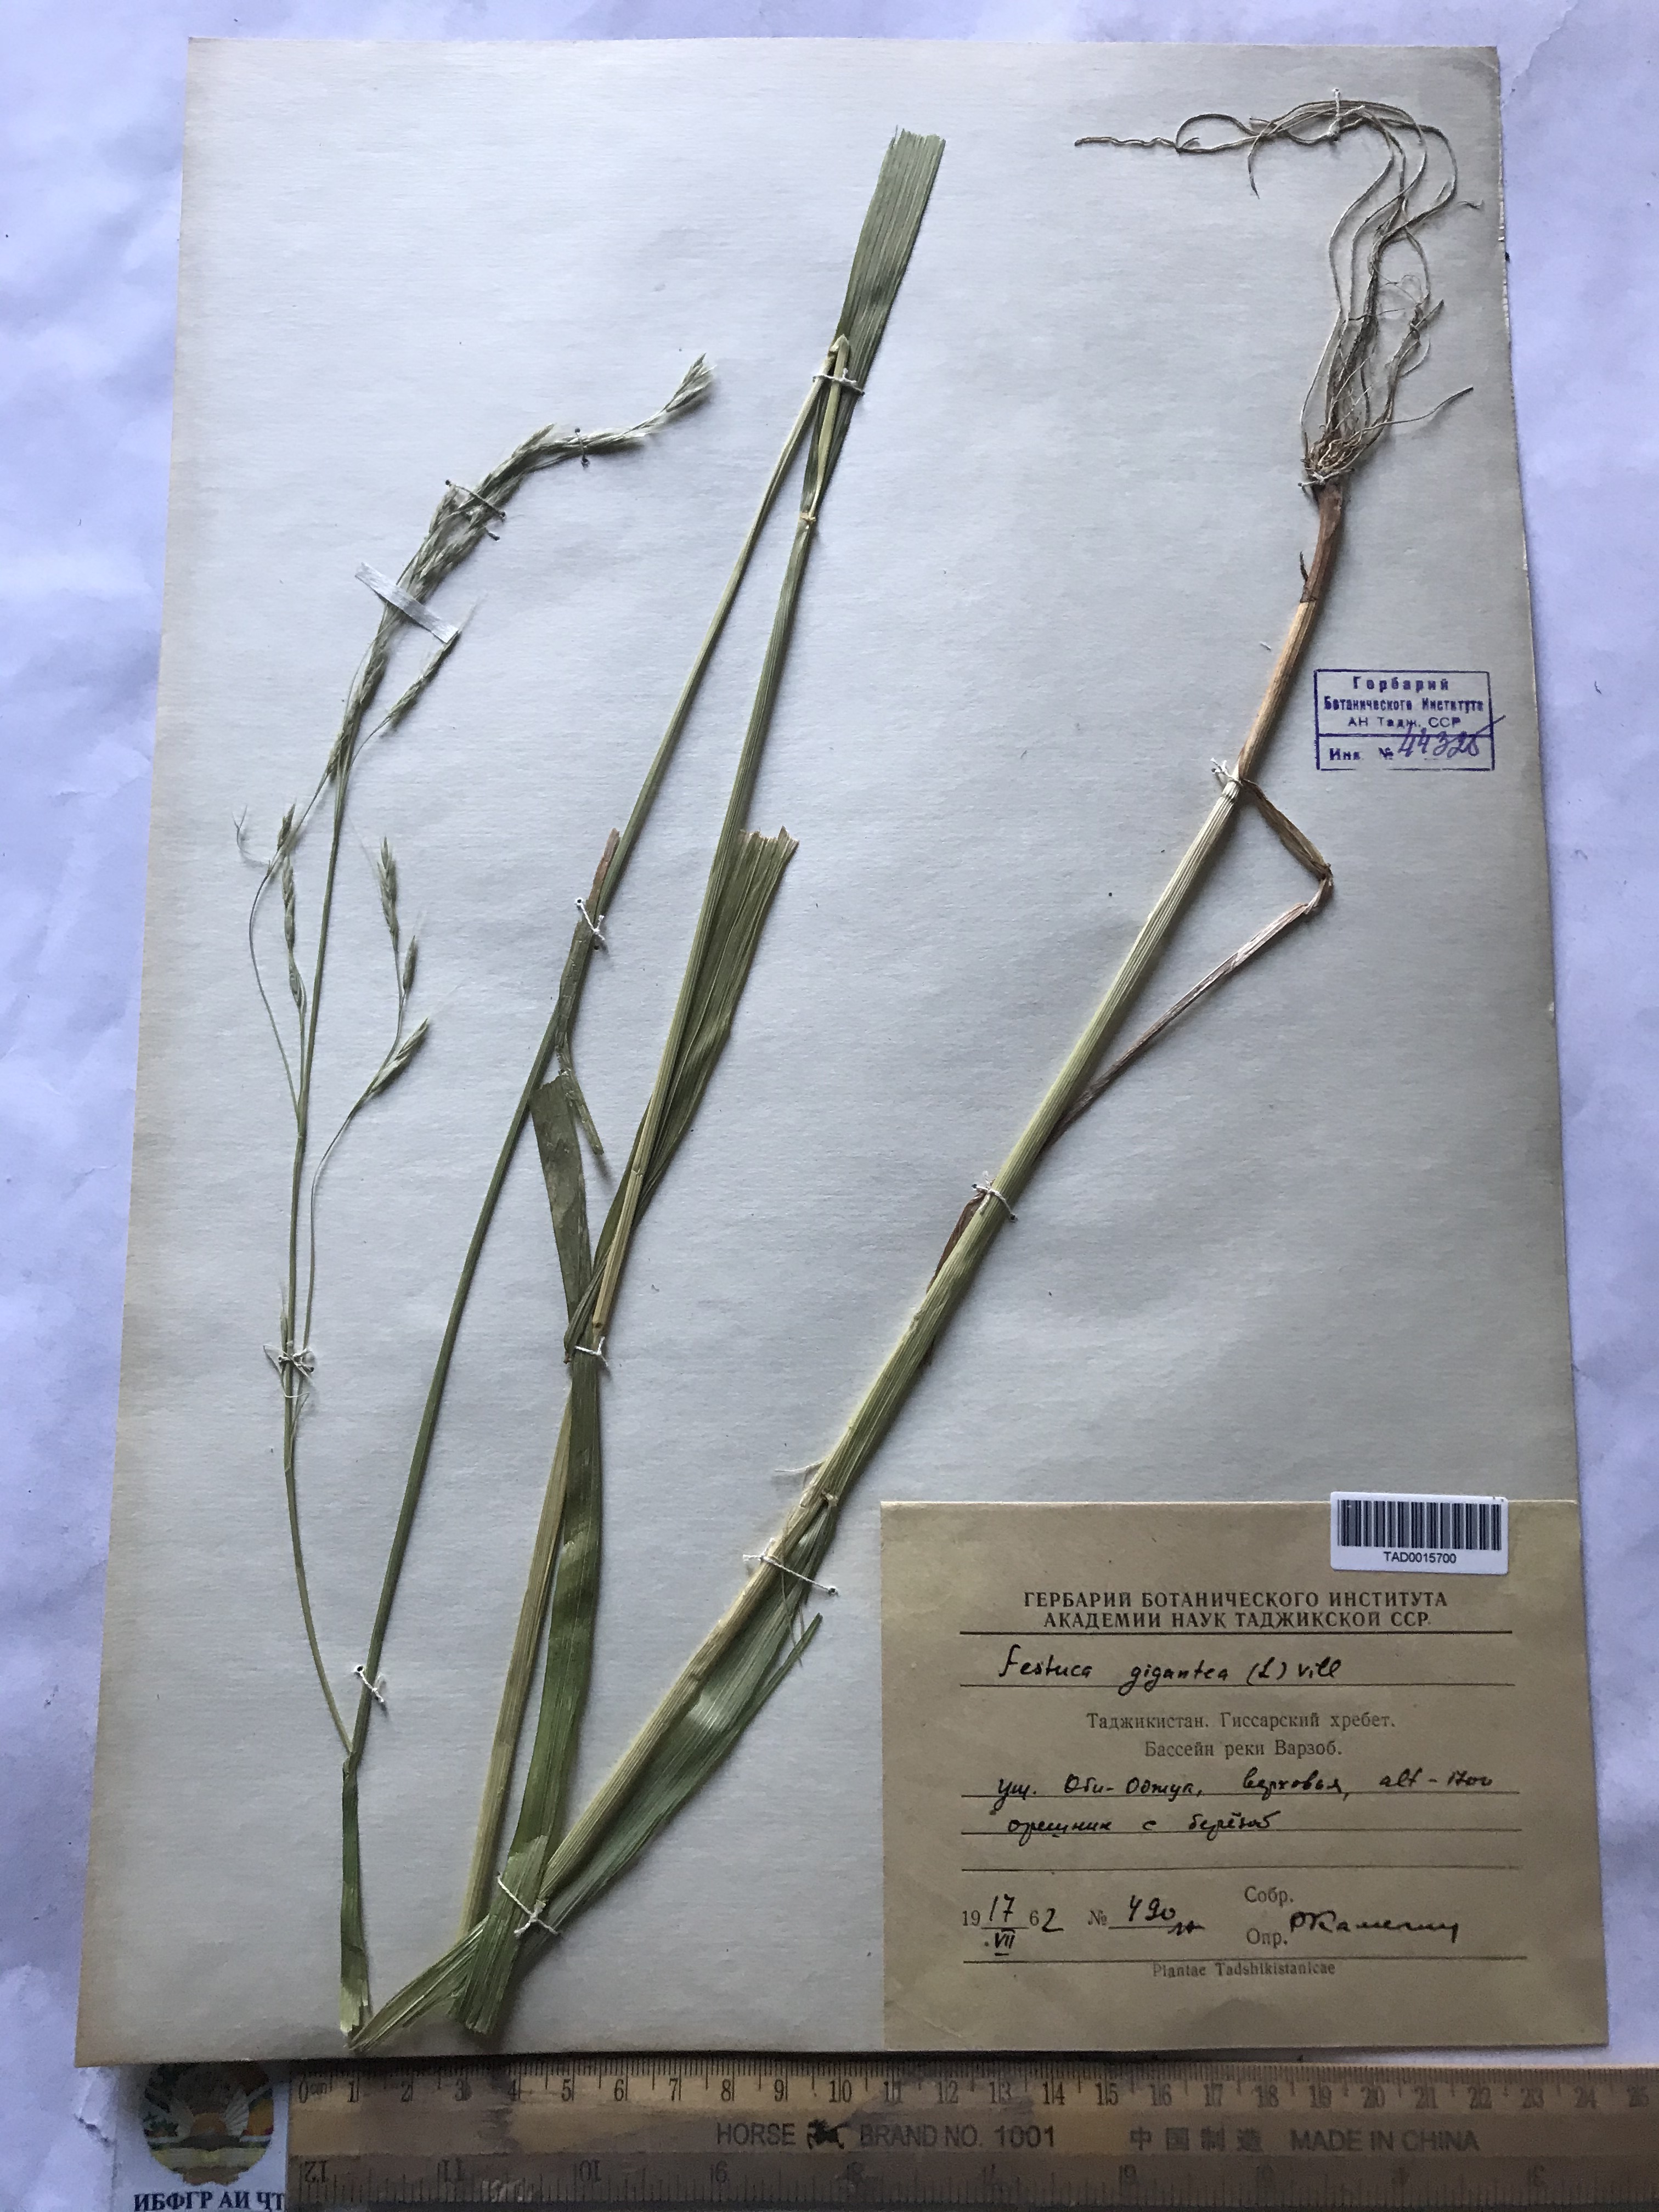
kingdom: Plantae
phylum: Tracheophyta
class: Liliopsida
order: Poales
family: Poaceae
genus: Lolium
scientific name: Lolium giganteum
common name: Giant fescue
